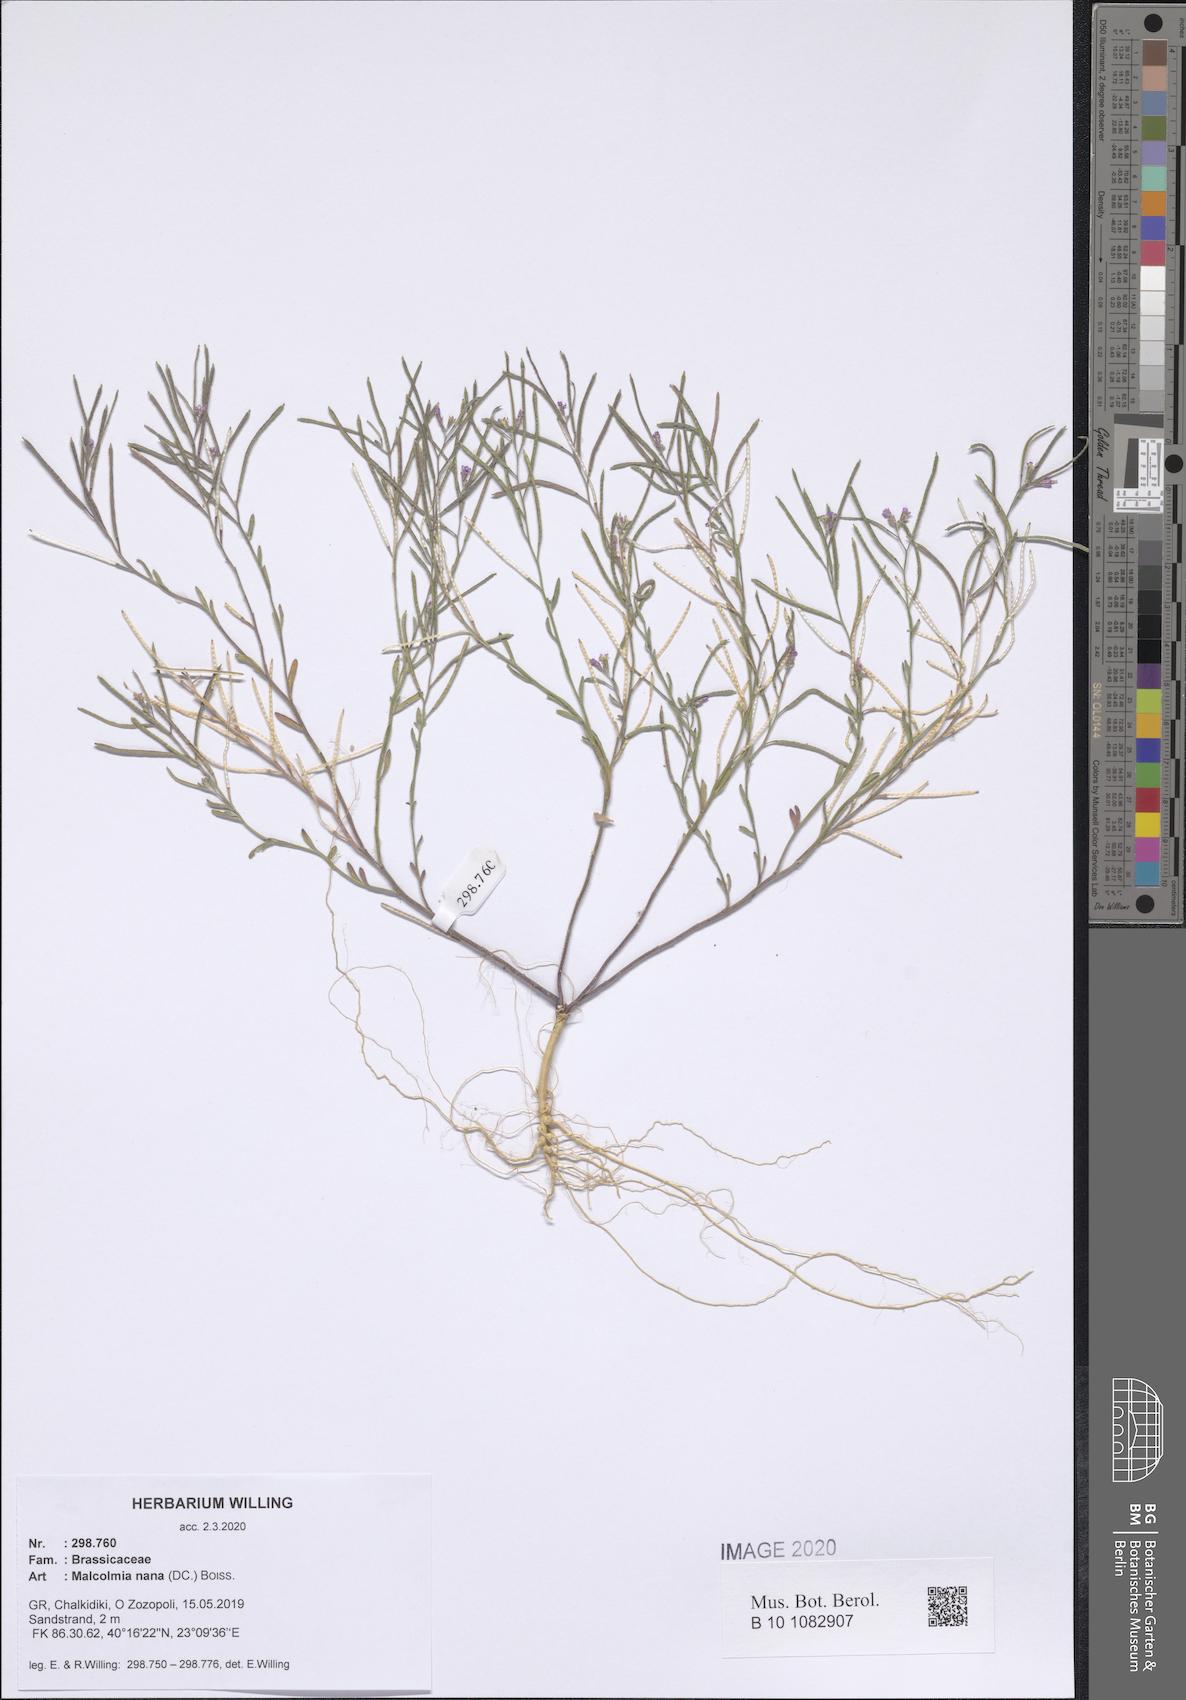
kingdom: Plantae
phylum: Tracheophyta
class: Magnoliopsida
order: Brassicales
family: Brassicaceae
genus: Maresia
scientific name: Maresia nana
